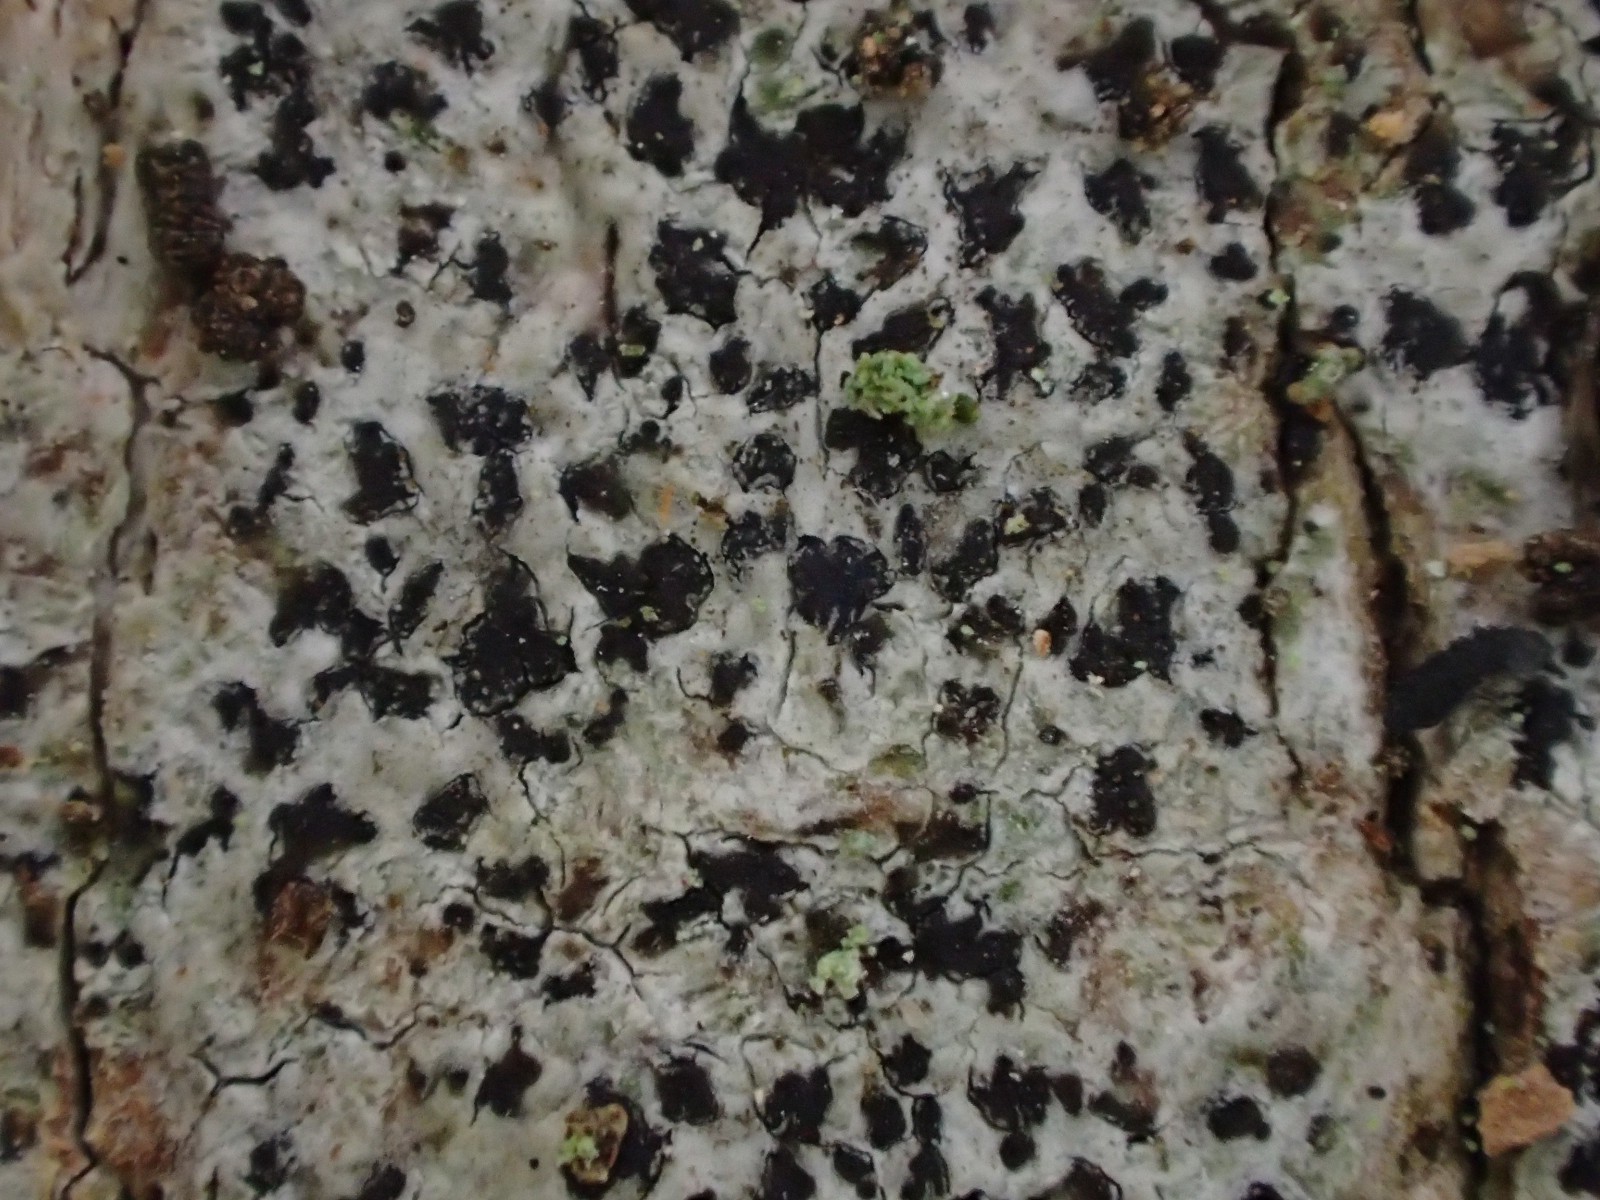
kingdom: Fungi
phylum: Ascomycota
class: Arthoniomycetes
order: Arthoniales
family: Arthoniaceae
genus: Arthonia
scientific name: Arthonia radiata
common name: stjerne-pletlav
